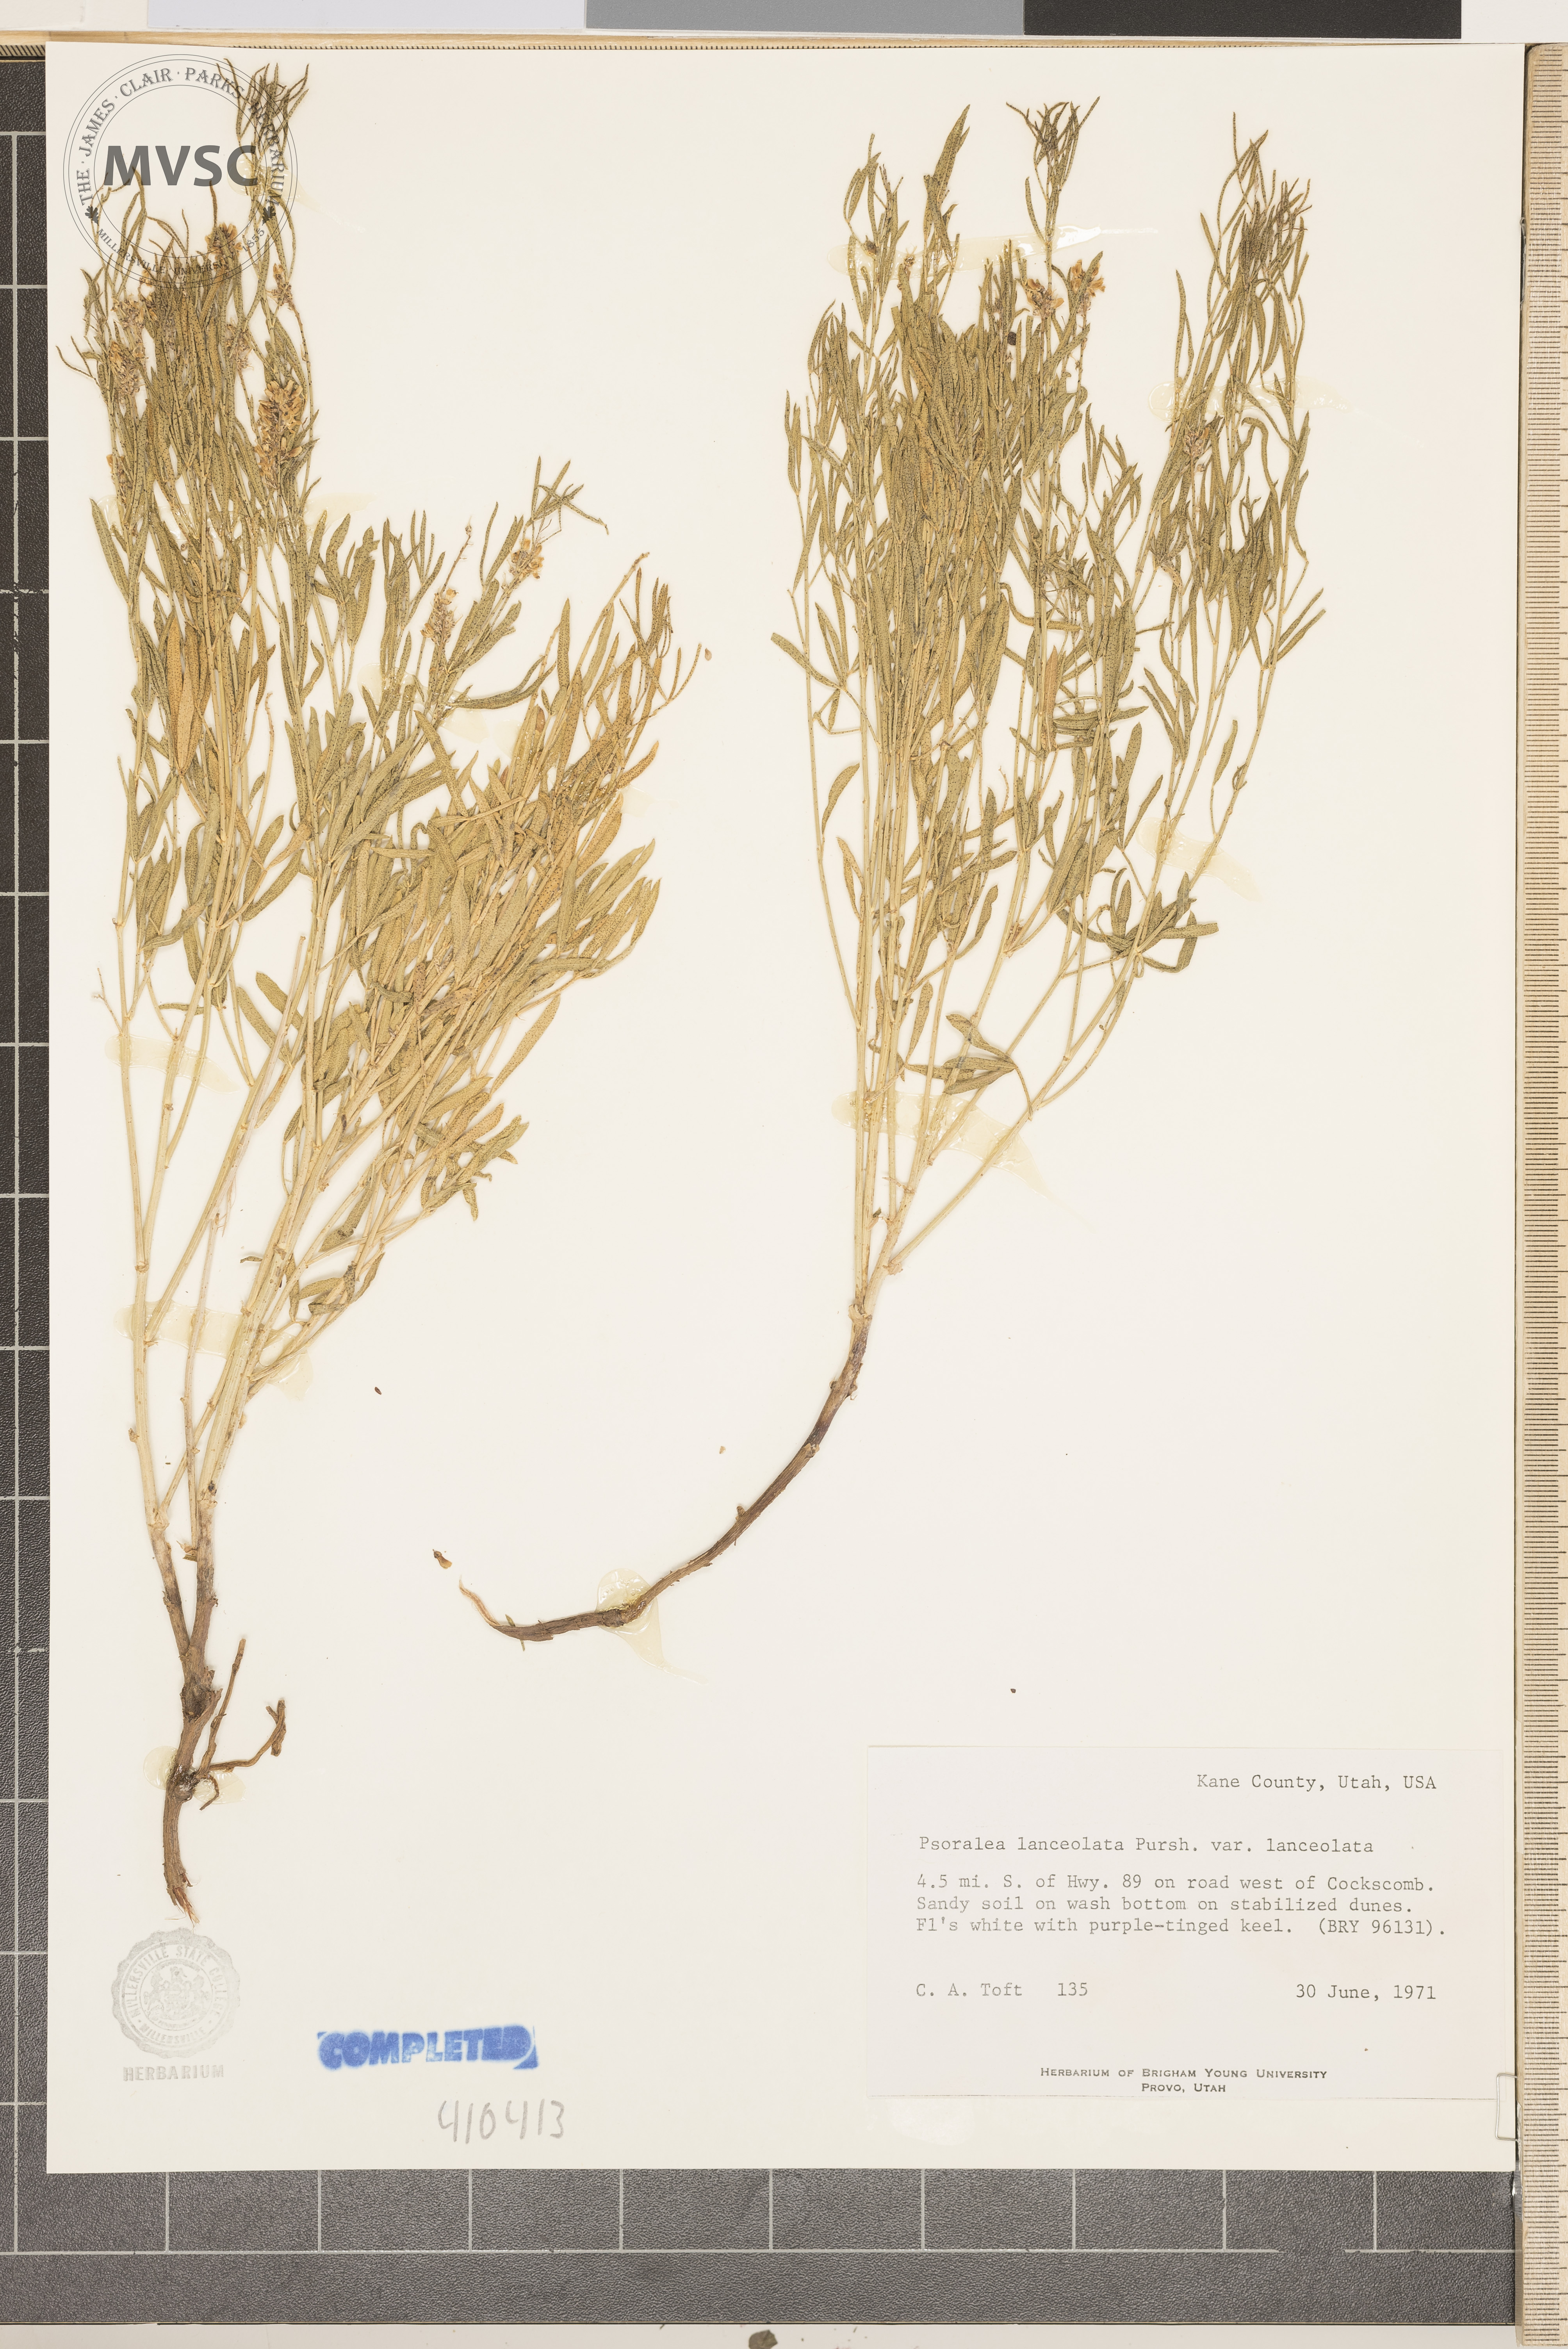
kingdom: Plantae
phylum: Tracheophyta
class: Magnoliopsida
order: Fabales
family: Fabaceae
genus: Psoralea
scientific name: Psoralea Otholobium lanceolatum
